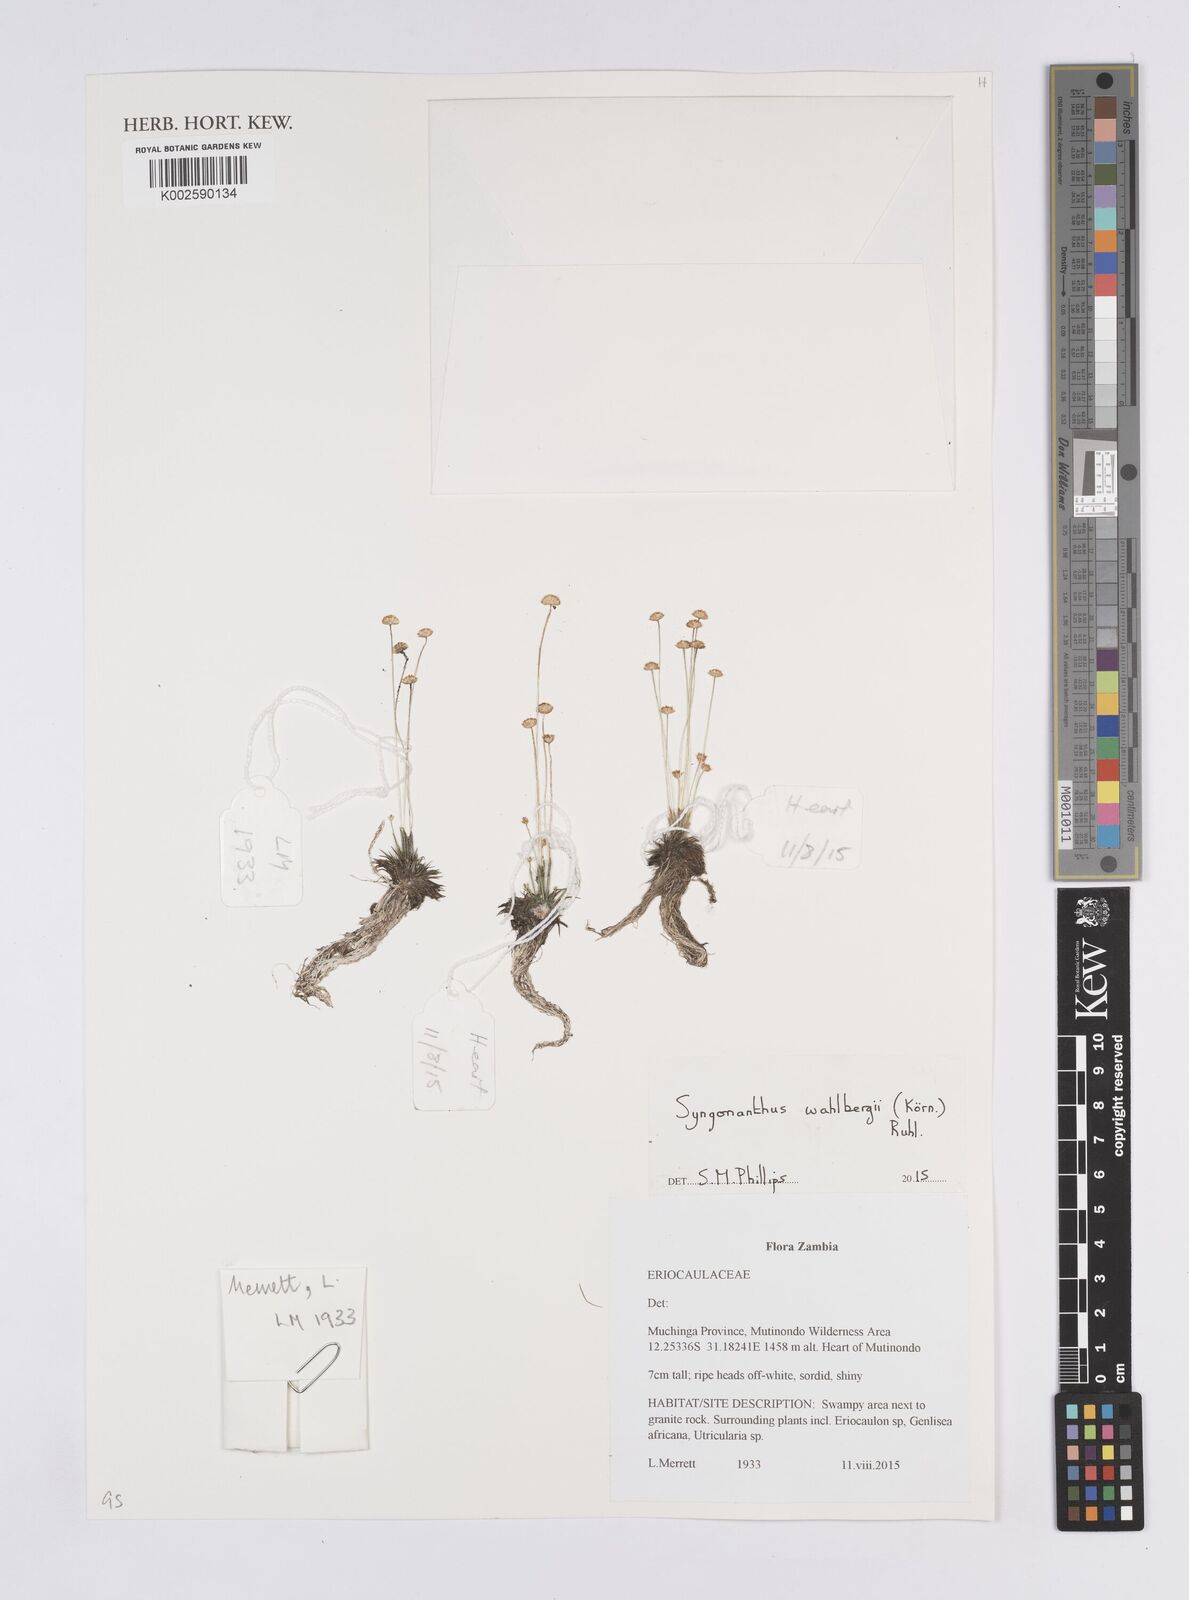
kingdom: Plantae
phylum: Tracheophyta
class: Liliopsida
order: Poales
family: Eriocaulaceae
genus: Syngonanthus
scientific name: Syngonanthus wahlbergii
